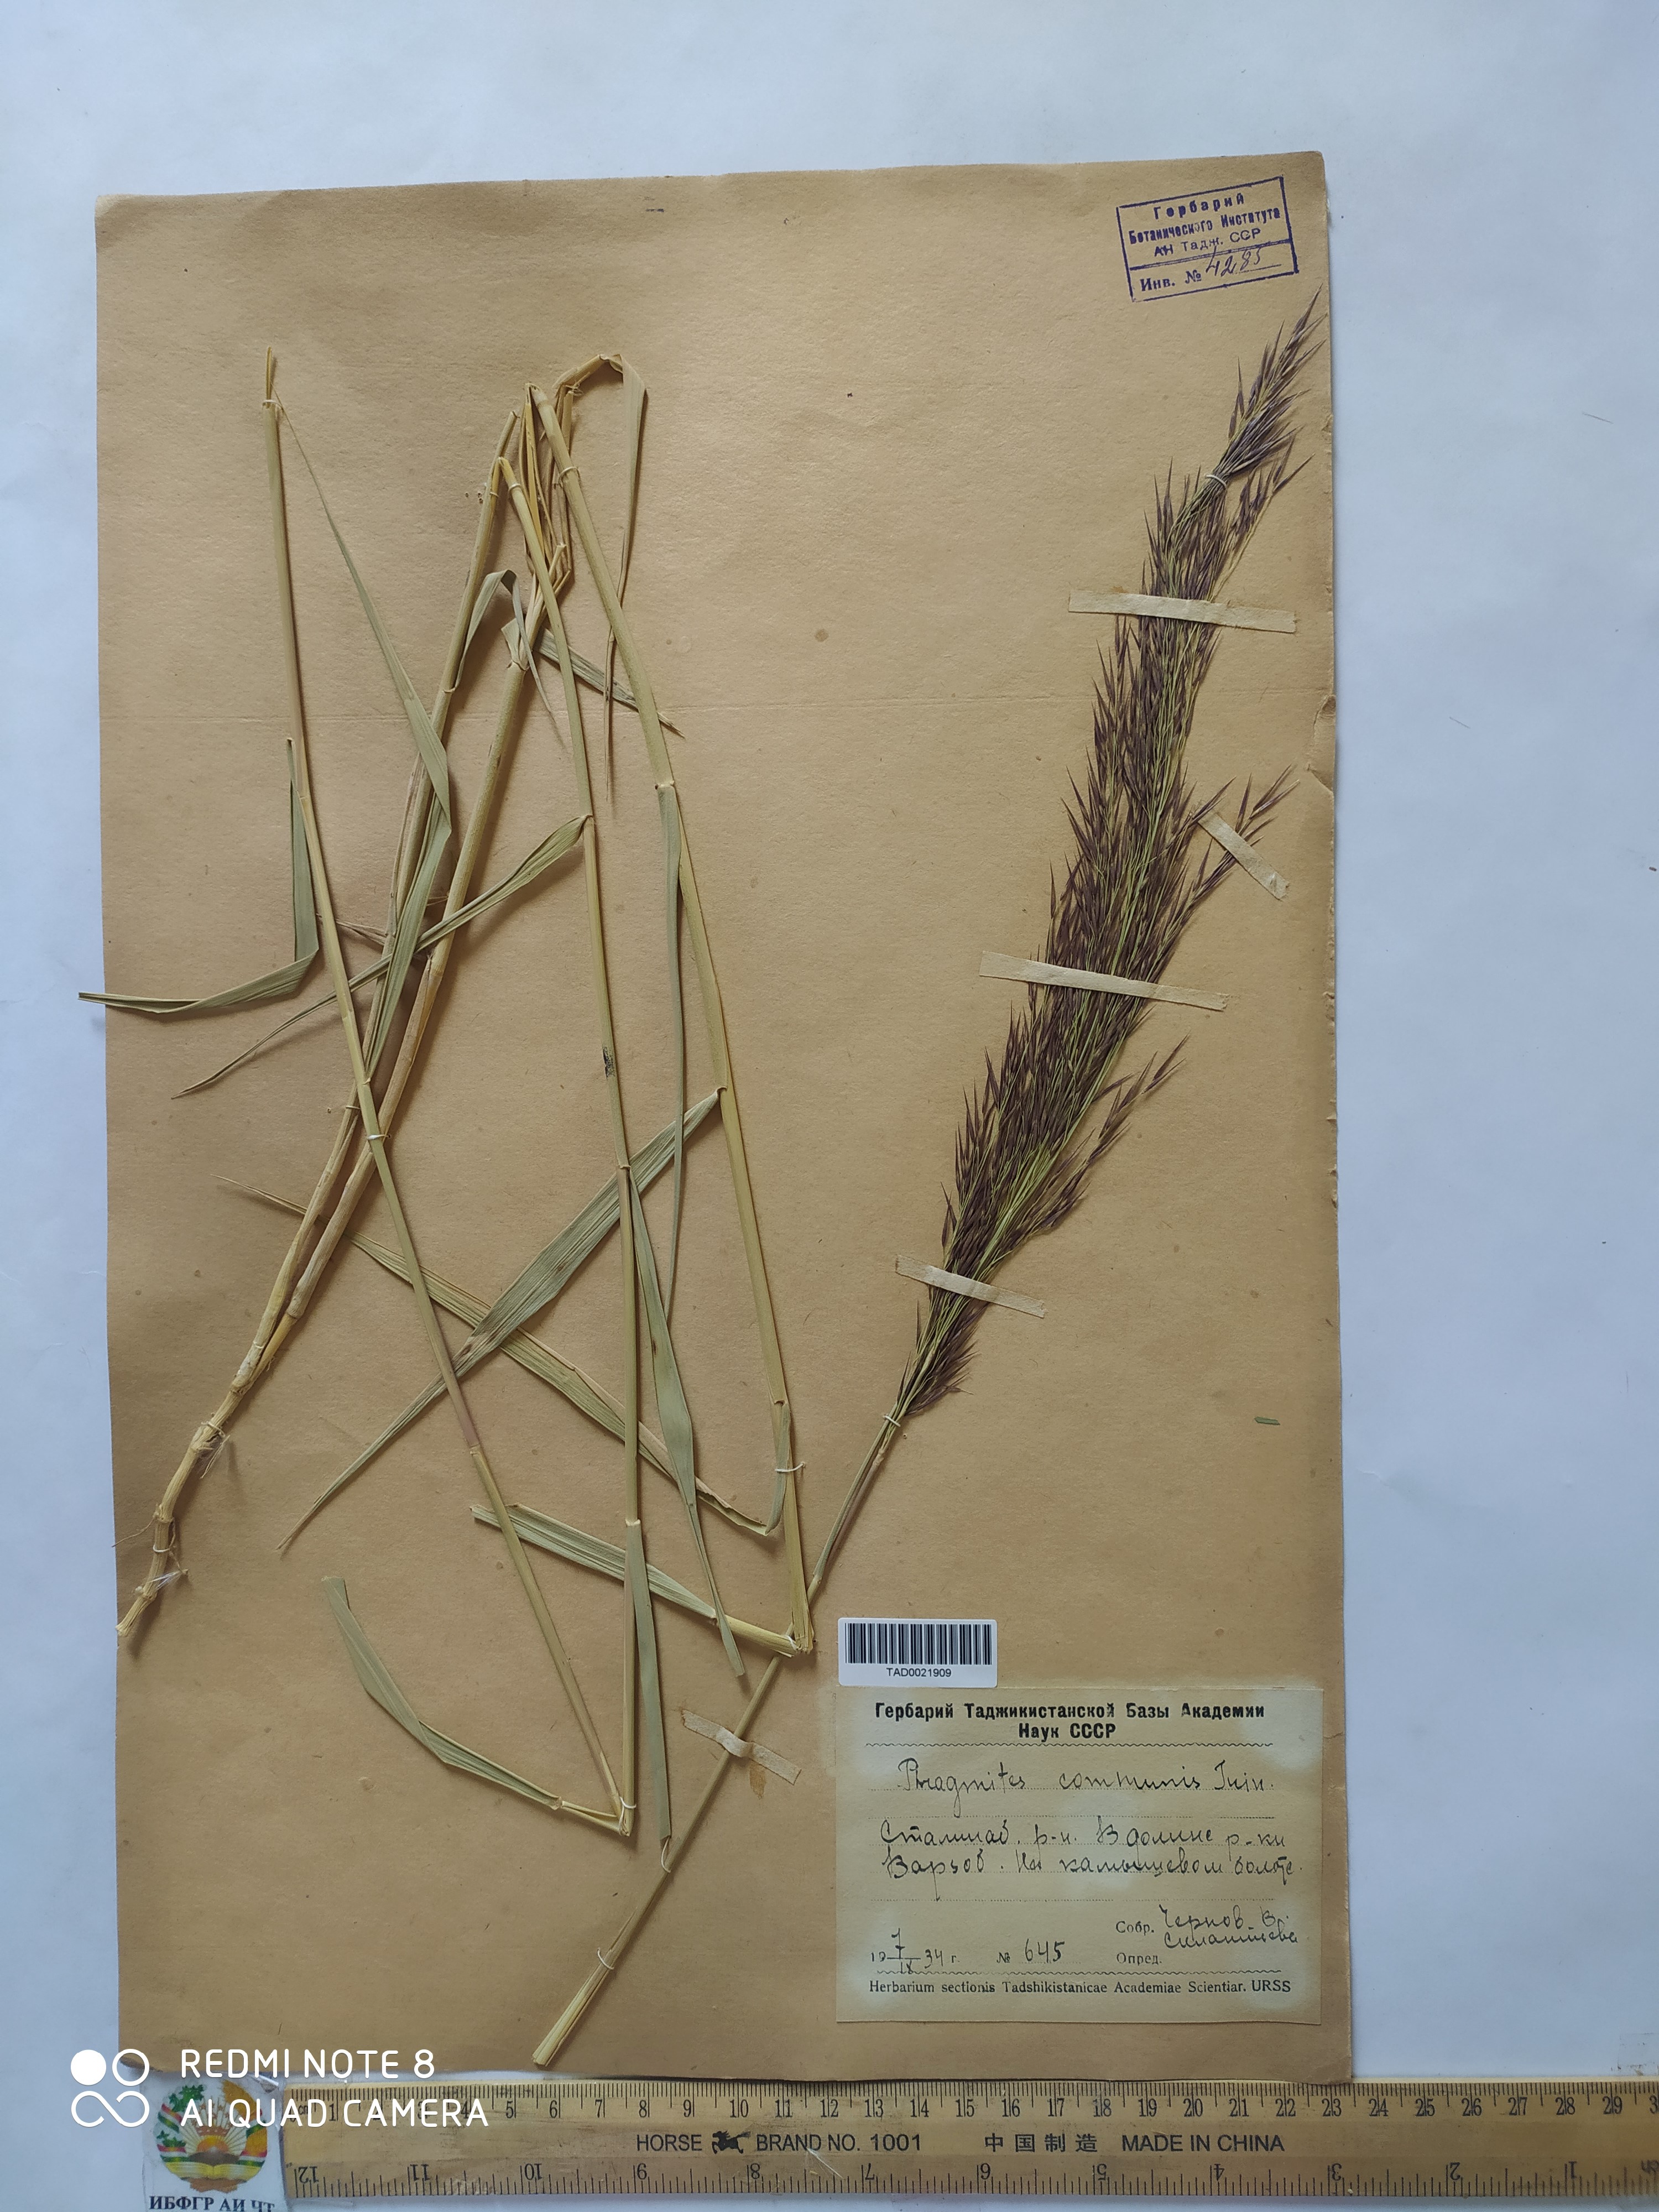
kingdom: Plantae
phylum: Tracheophyta
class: Liliopsida
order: Poales
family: Poaceae
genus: Phragmites
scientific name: Phragmites australis
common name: Common reed
